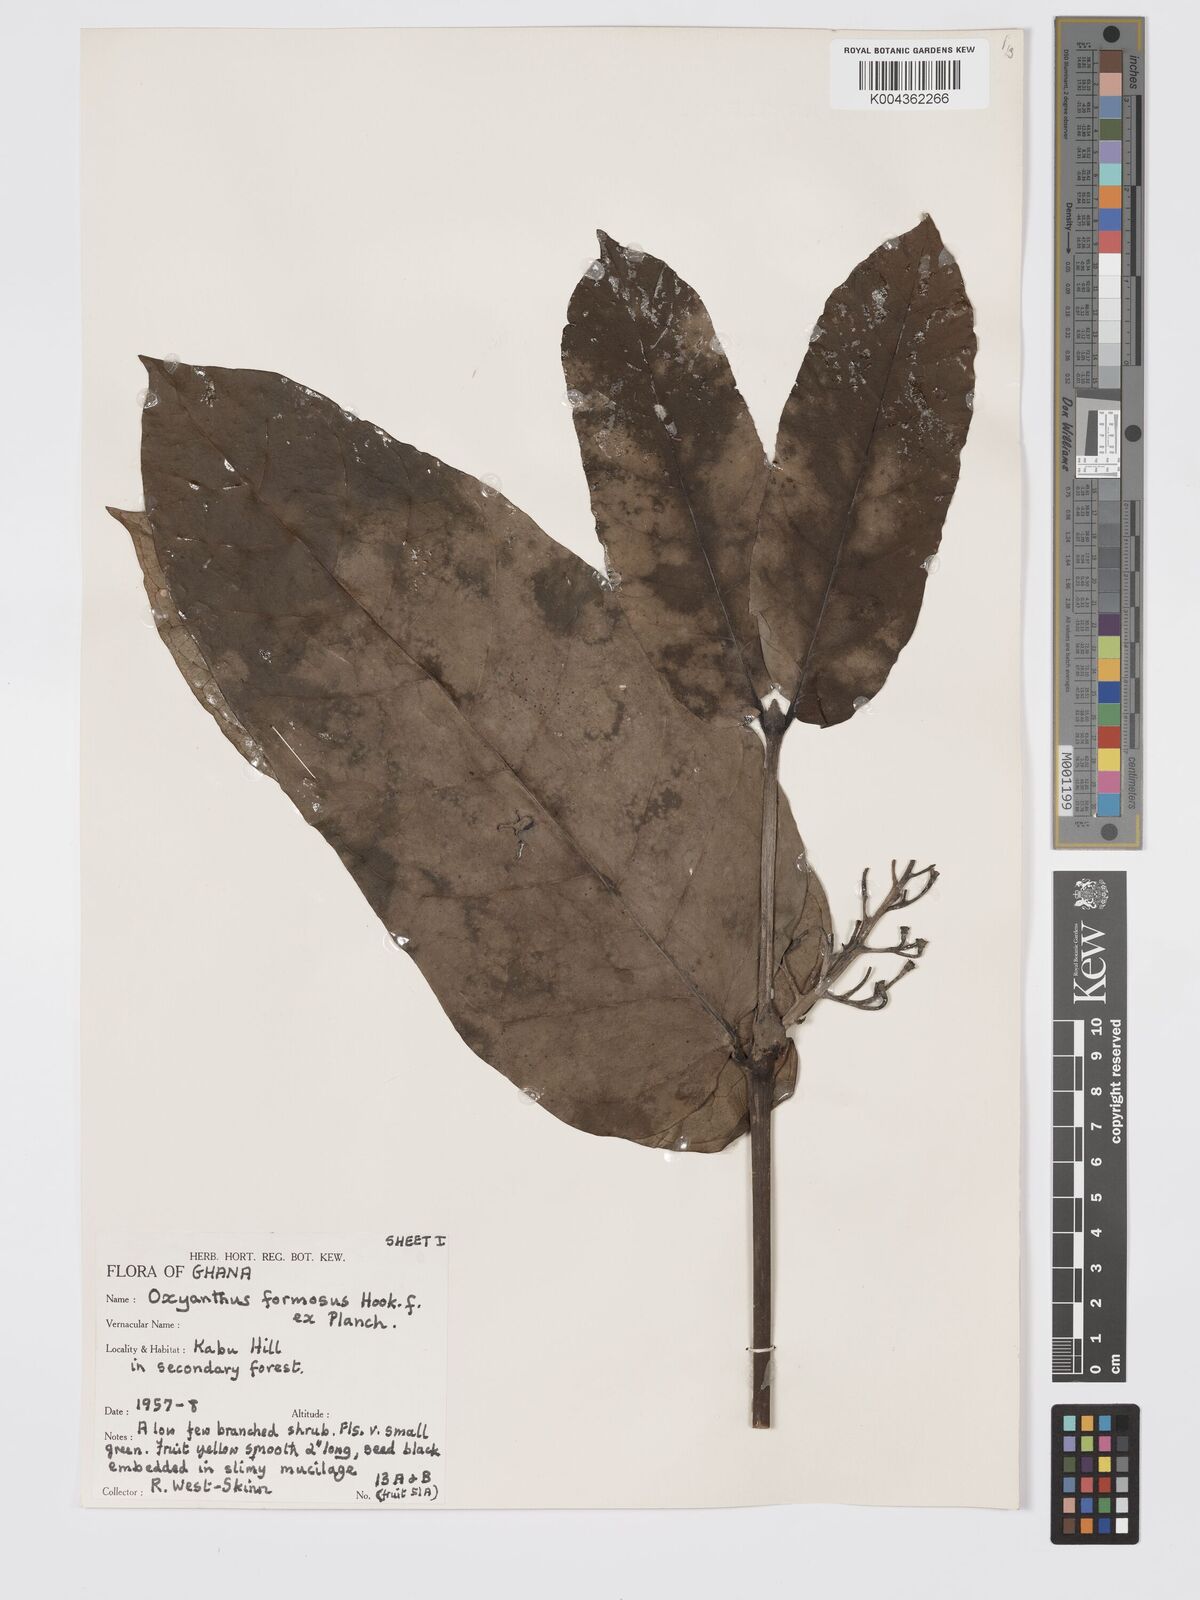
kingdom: Plantae
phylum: Tracheophyta
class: Magnoliopsida
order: Gentianales
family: Rubiaceae
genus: Oxyanthus
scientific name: Oxyanthus formosus
